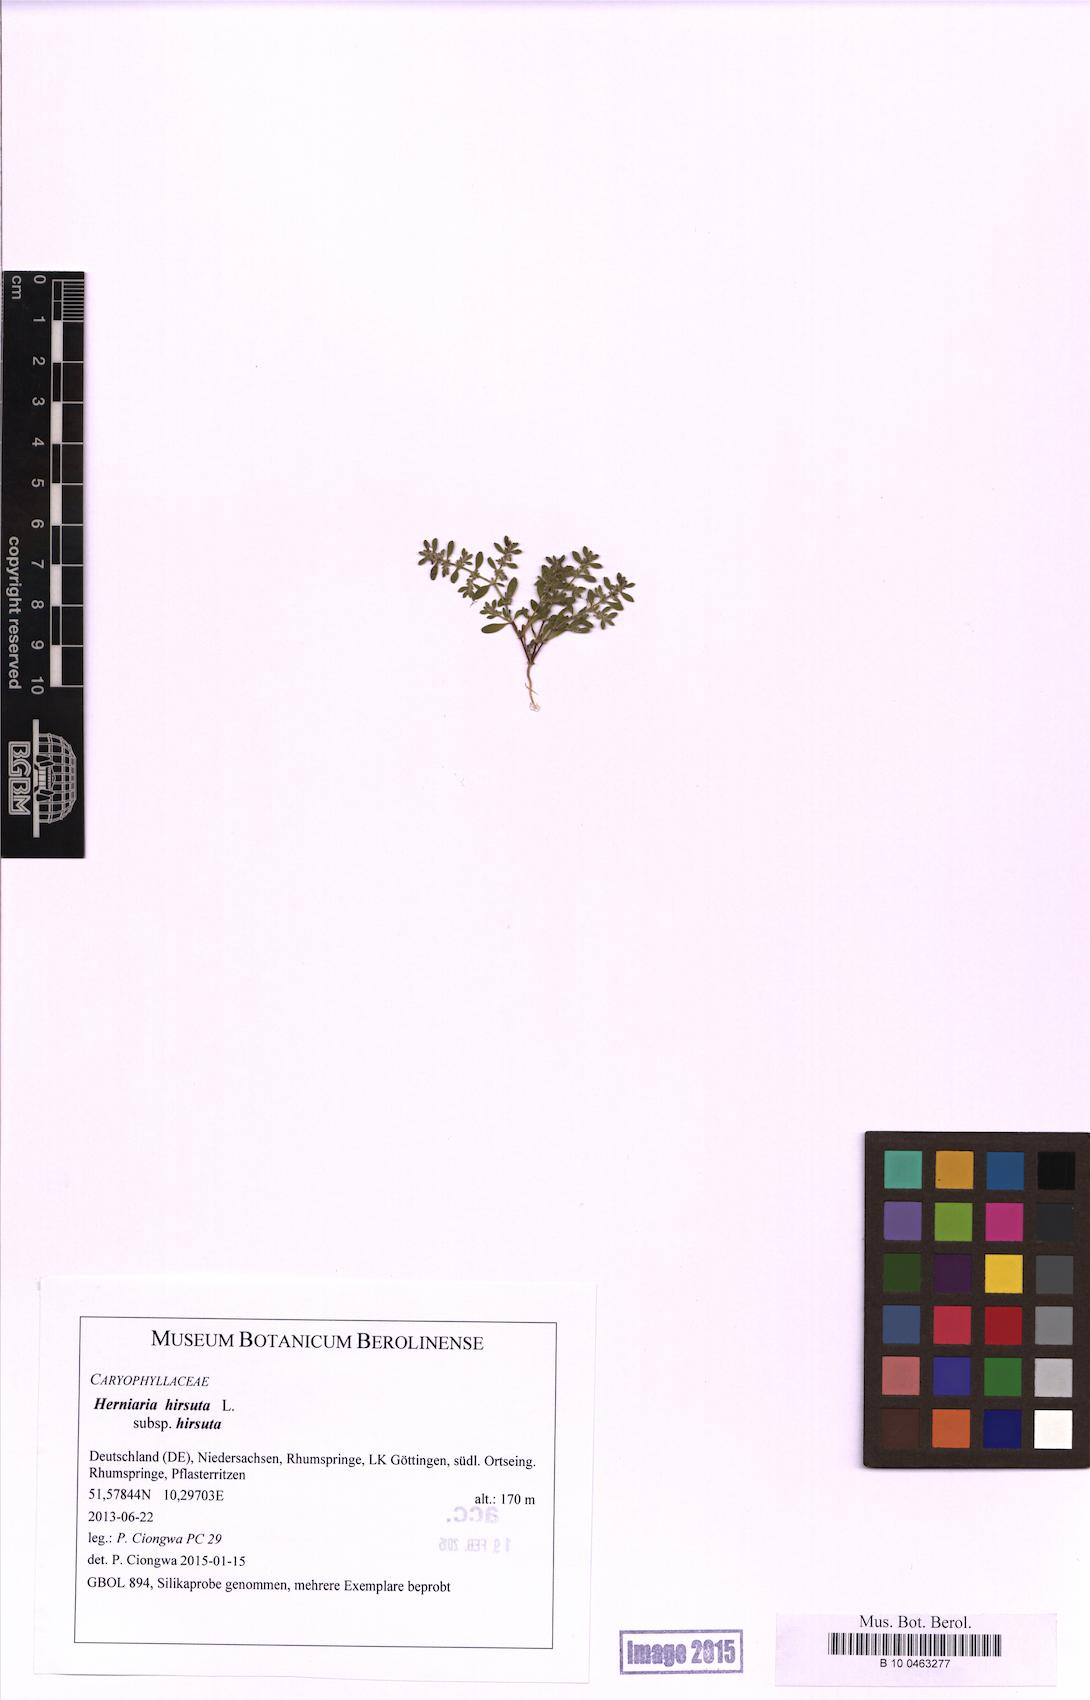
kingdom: Plantae
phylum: Tracheophyta
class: Magnoliopsida
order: Caryophyllales
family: Caryophyllaceae
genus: Herniaria
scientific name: Herniaria hirsuta
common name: Hairy rupturewort
